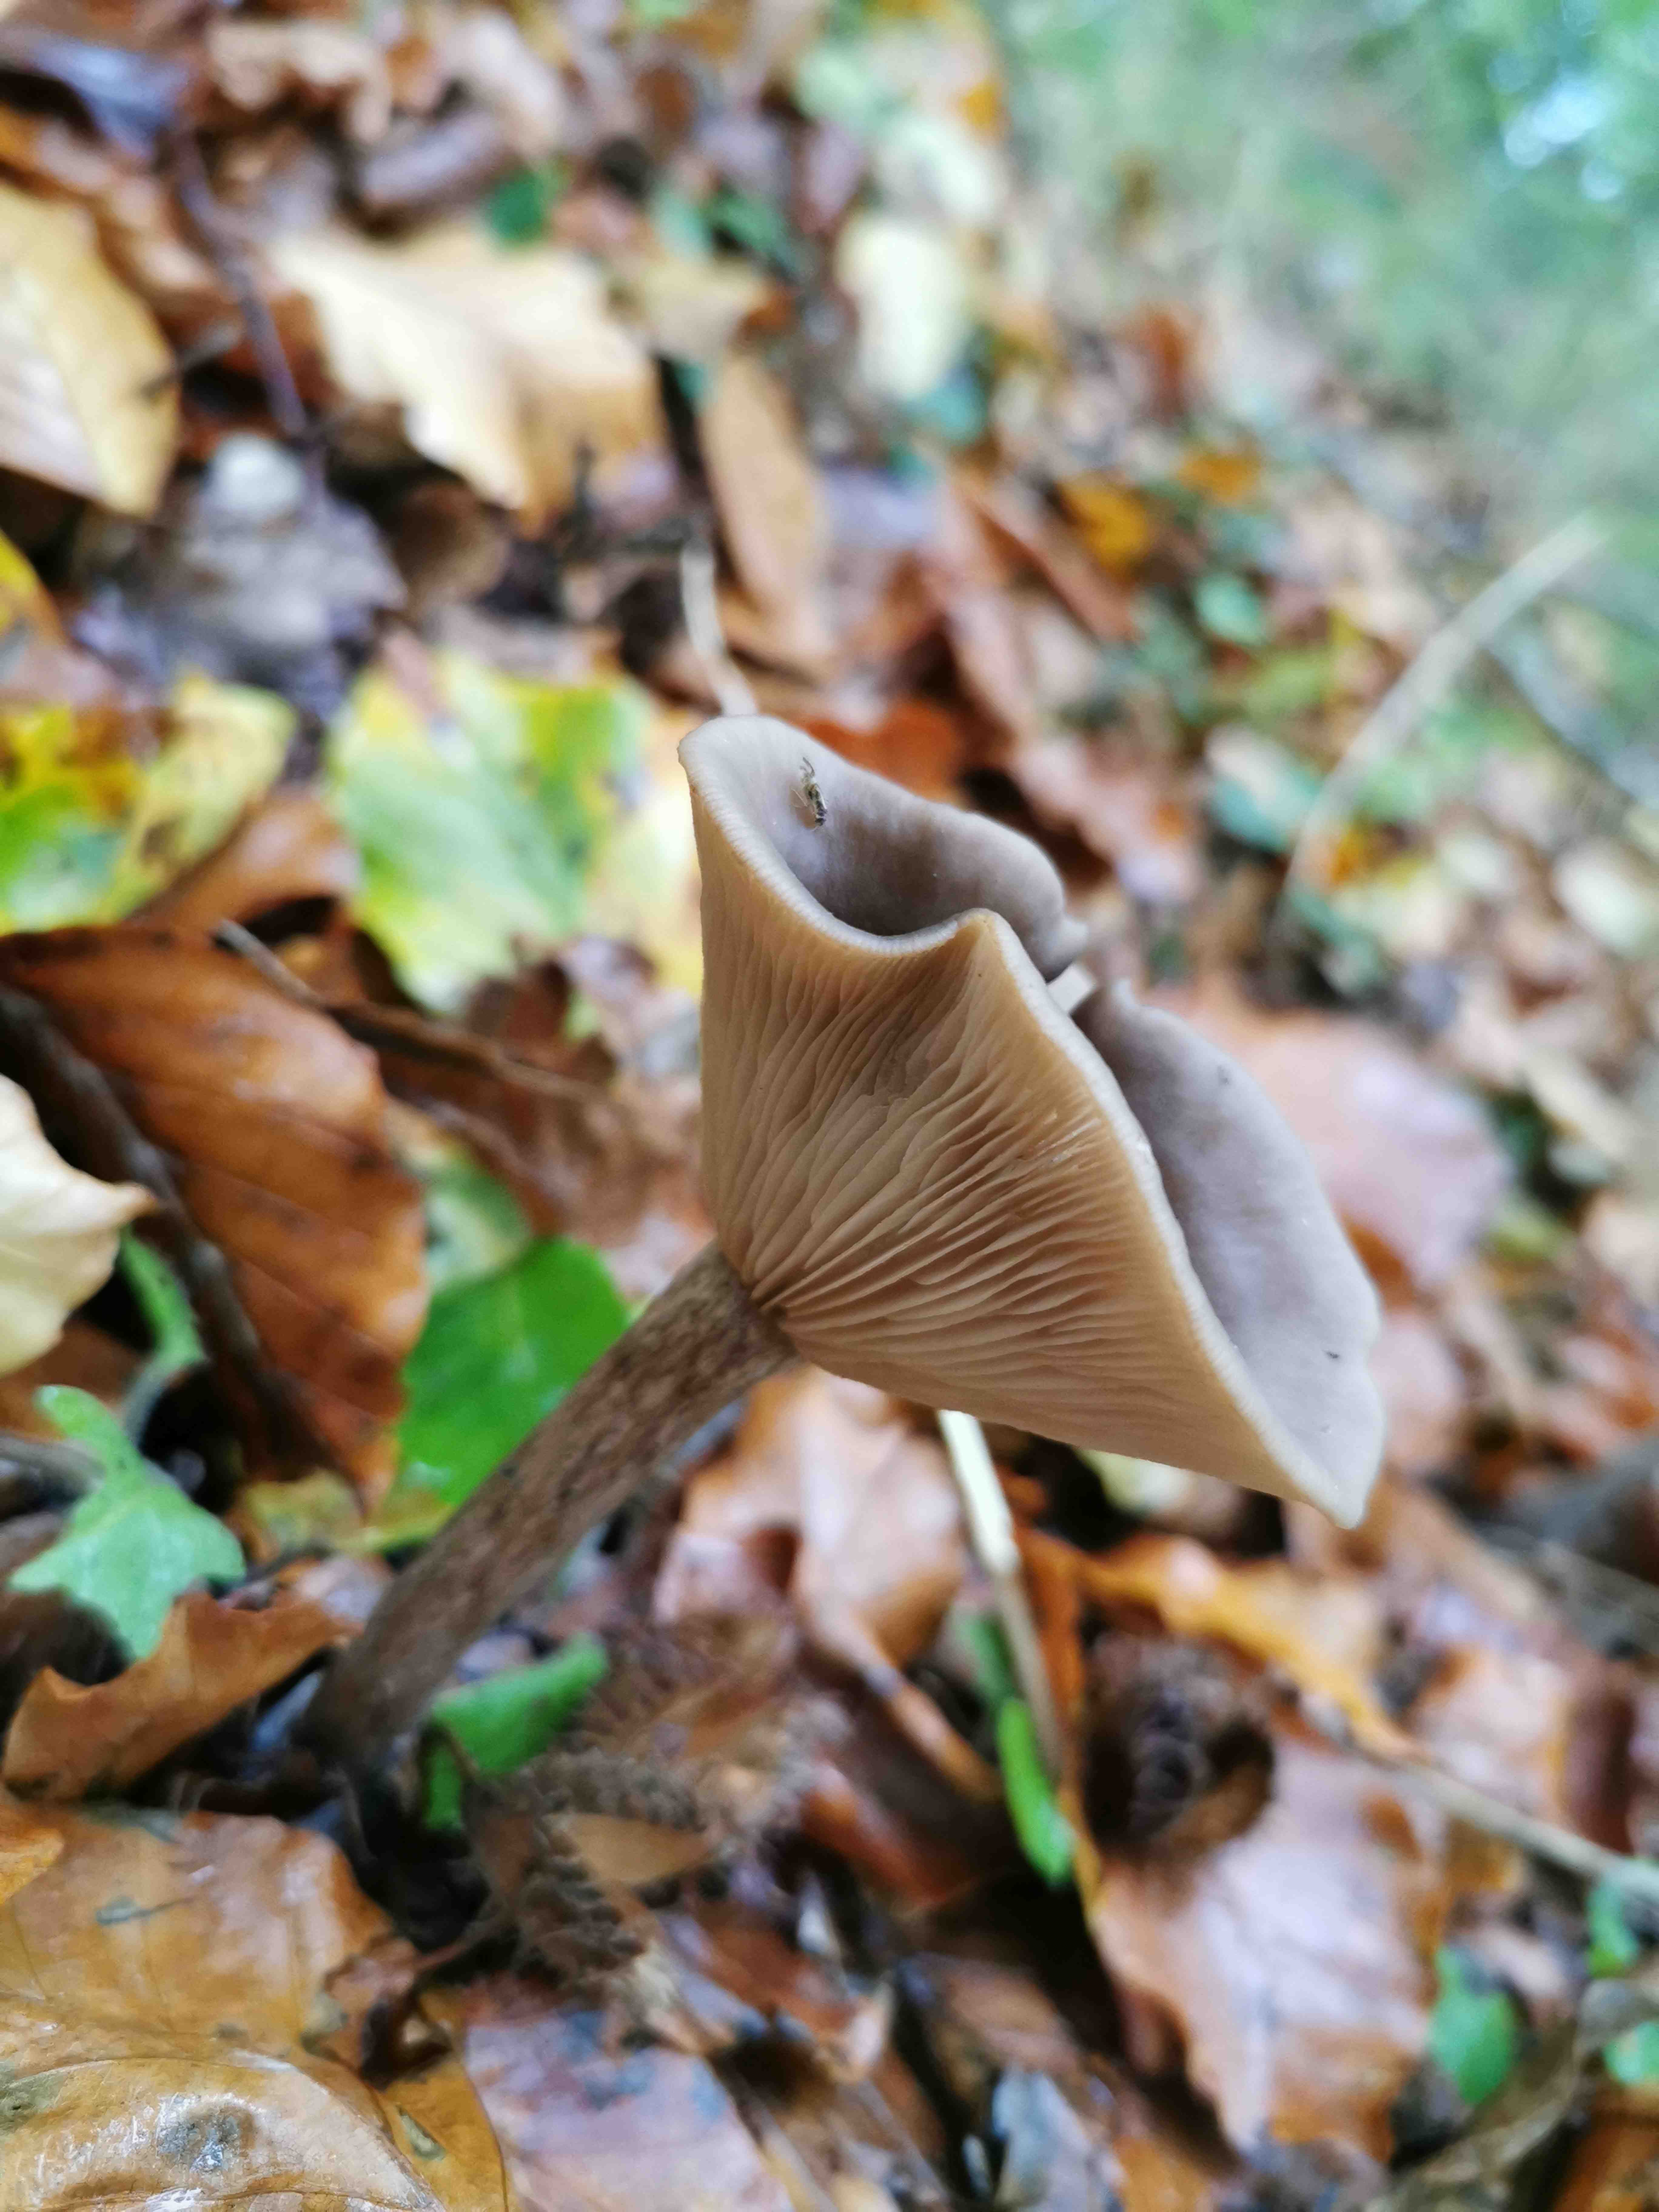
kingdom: Fungi
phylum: Basidiomycota
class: Agaricomycetes
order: Agaricales
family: Pseudoclitocybaceae
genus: Pseudoclitocybe
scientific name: Pseudoclitocybe cyathiformis
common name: almindelig bægertragthat
